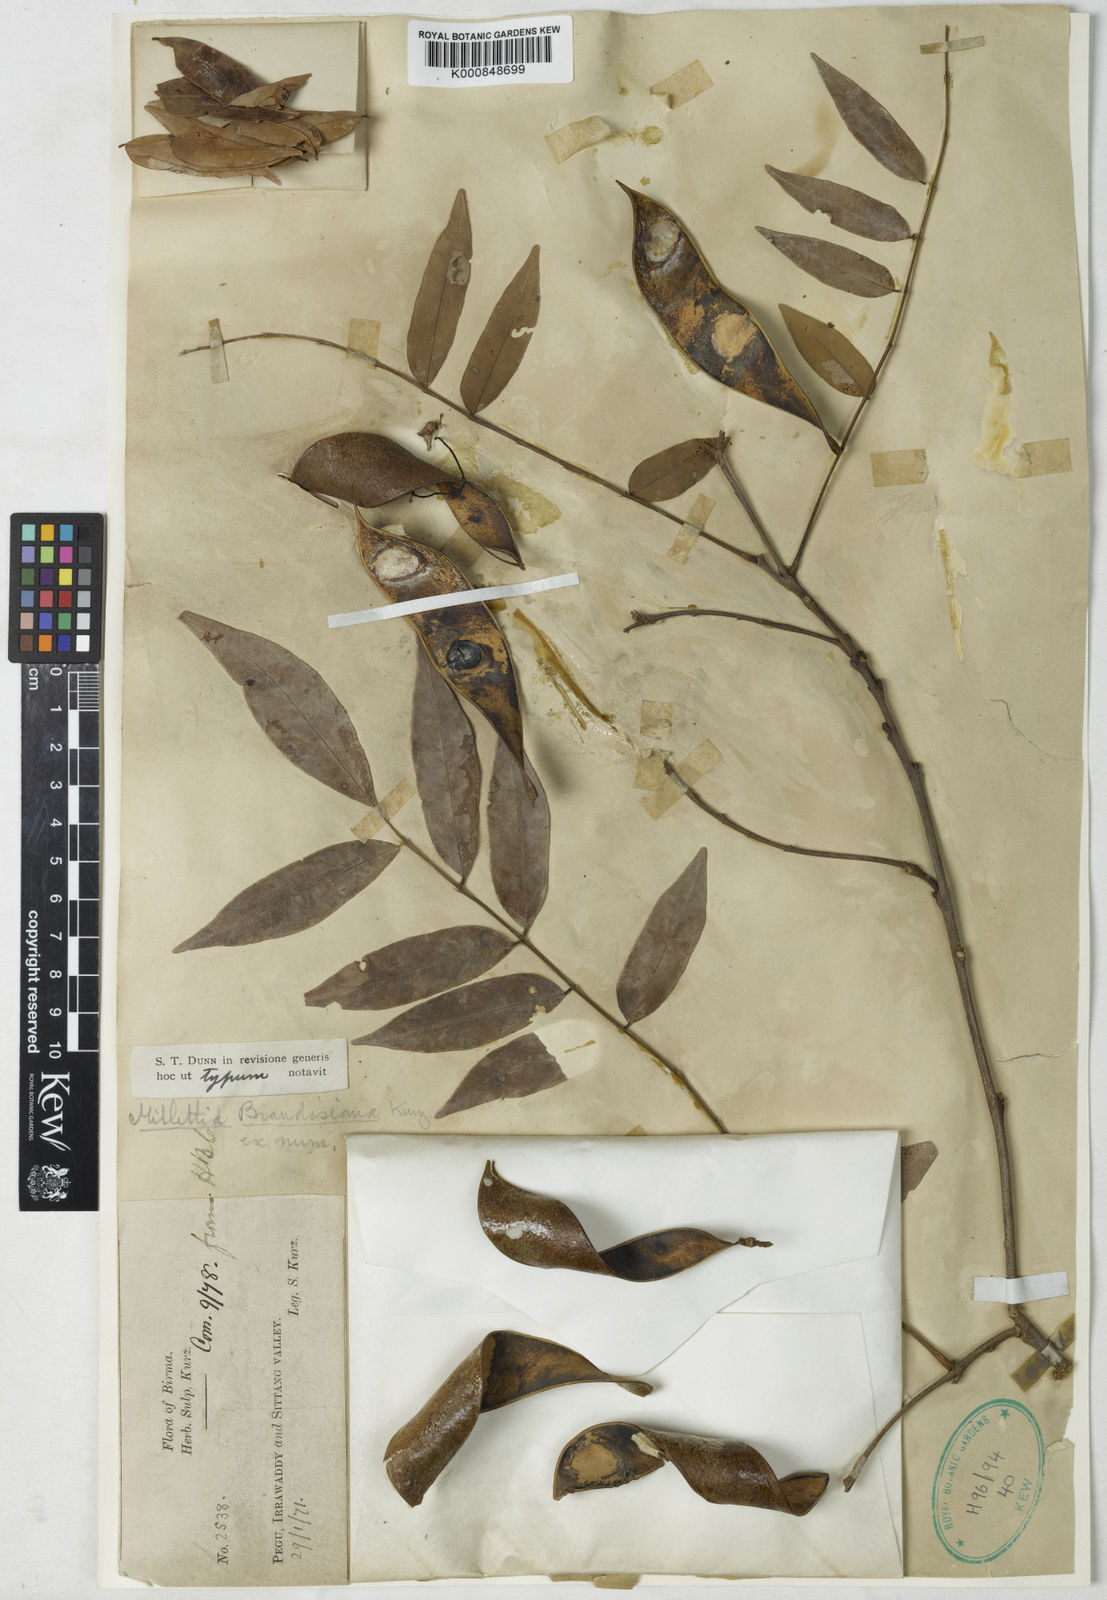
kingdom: Plantae
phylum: Tracheophyta
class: Magnoliopsida
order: Fabales
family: Fabaceae
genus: Millettia
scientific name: Millettia brandisiana
